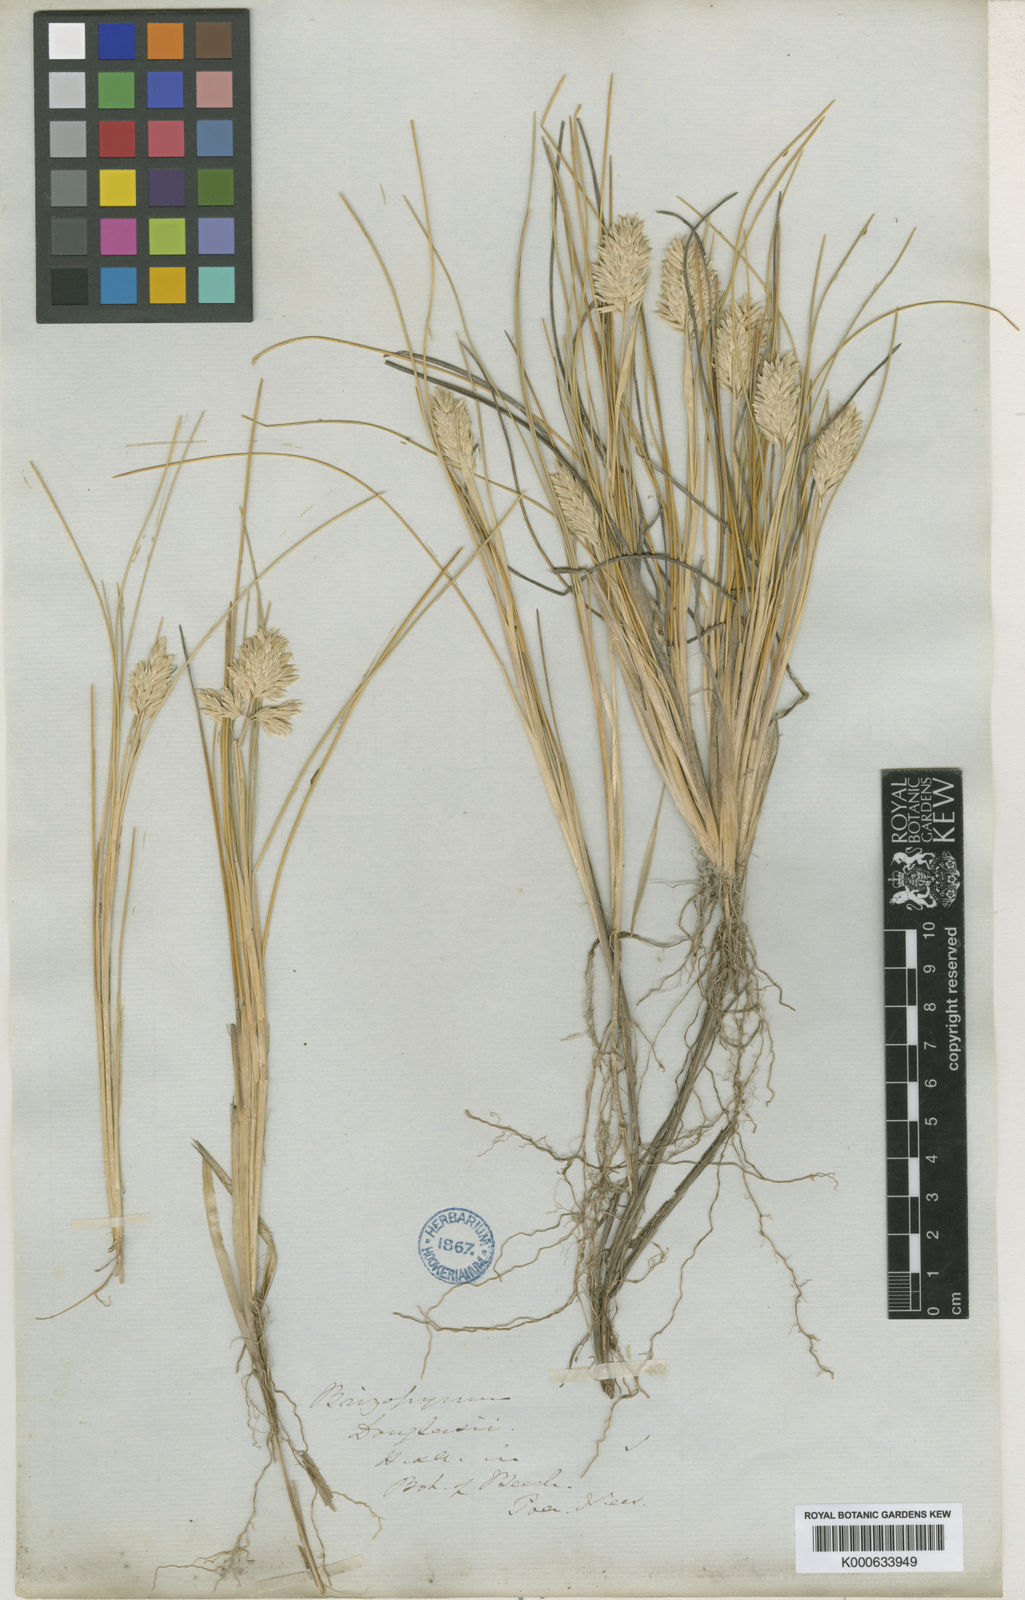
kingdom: Plantae
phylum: Tracheophyta
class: Liliopsida
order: Poales
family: Poaceae
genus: Poa
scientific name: Poa douglasii
